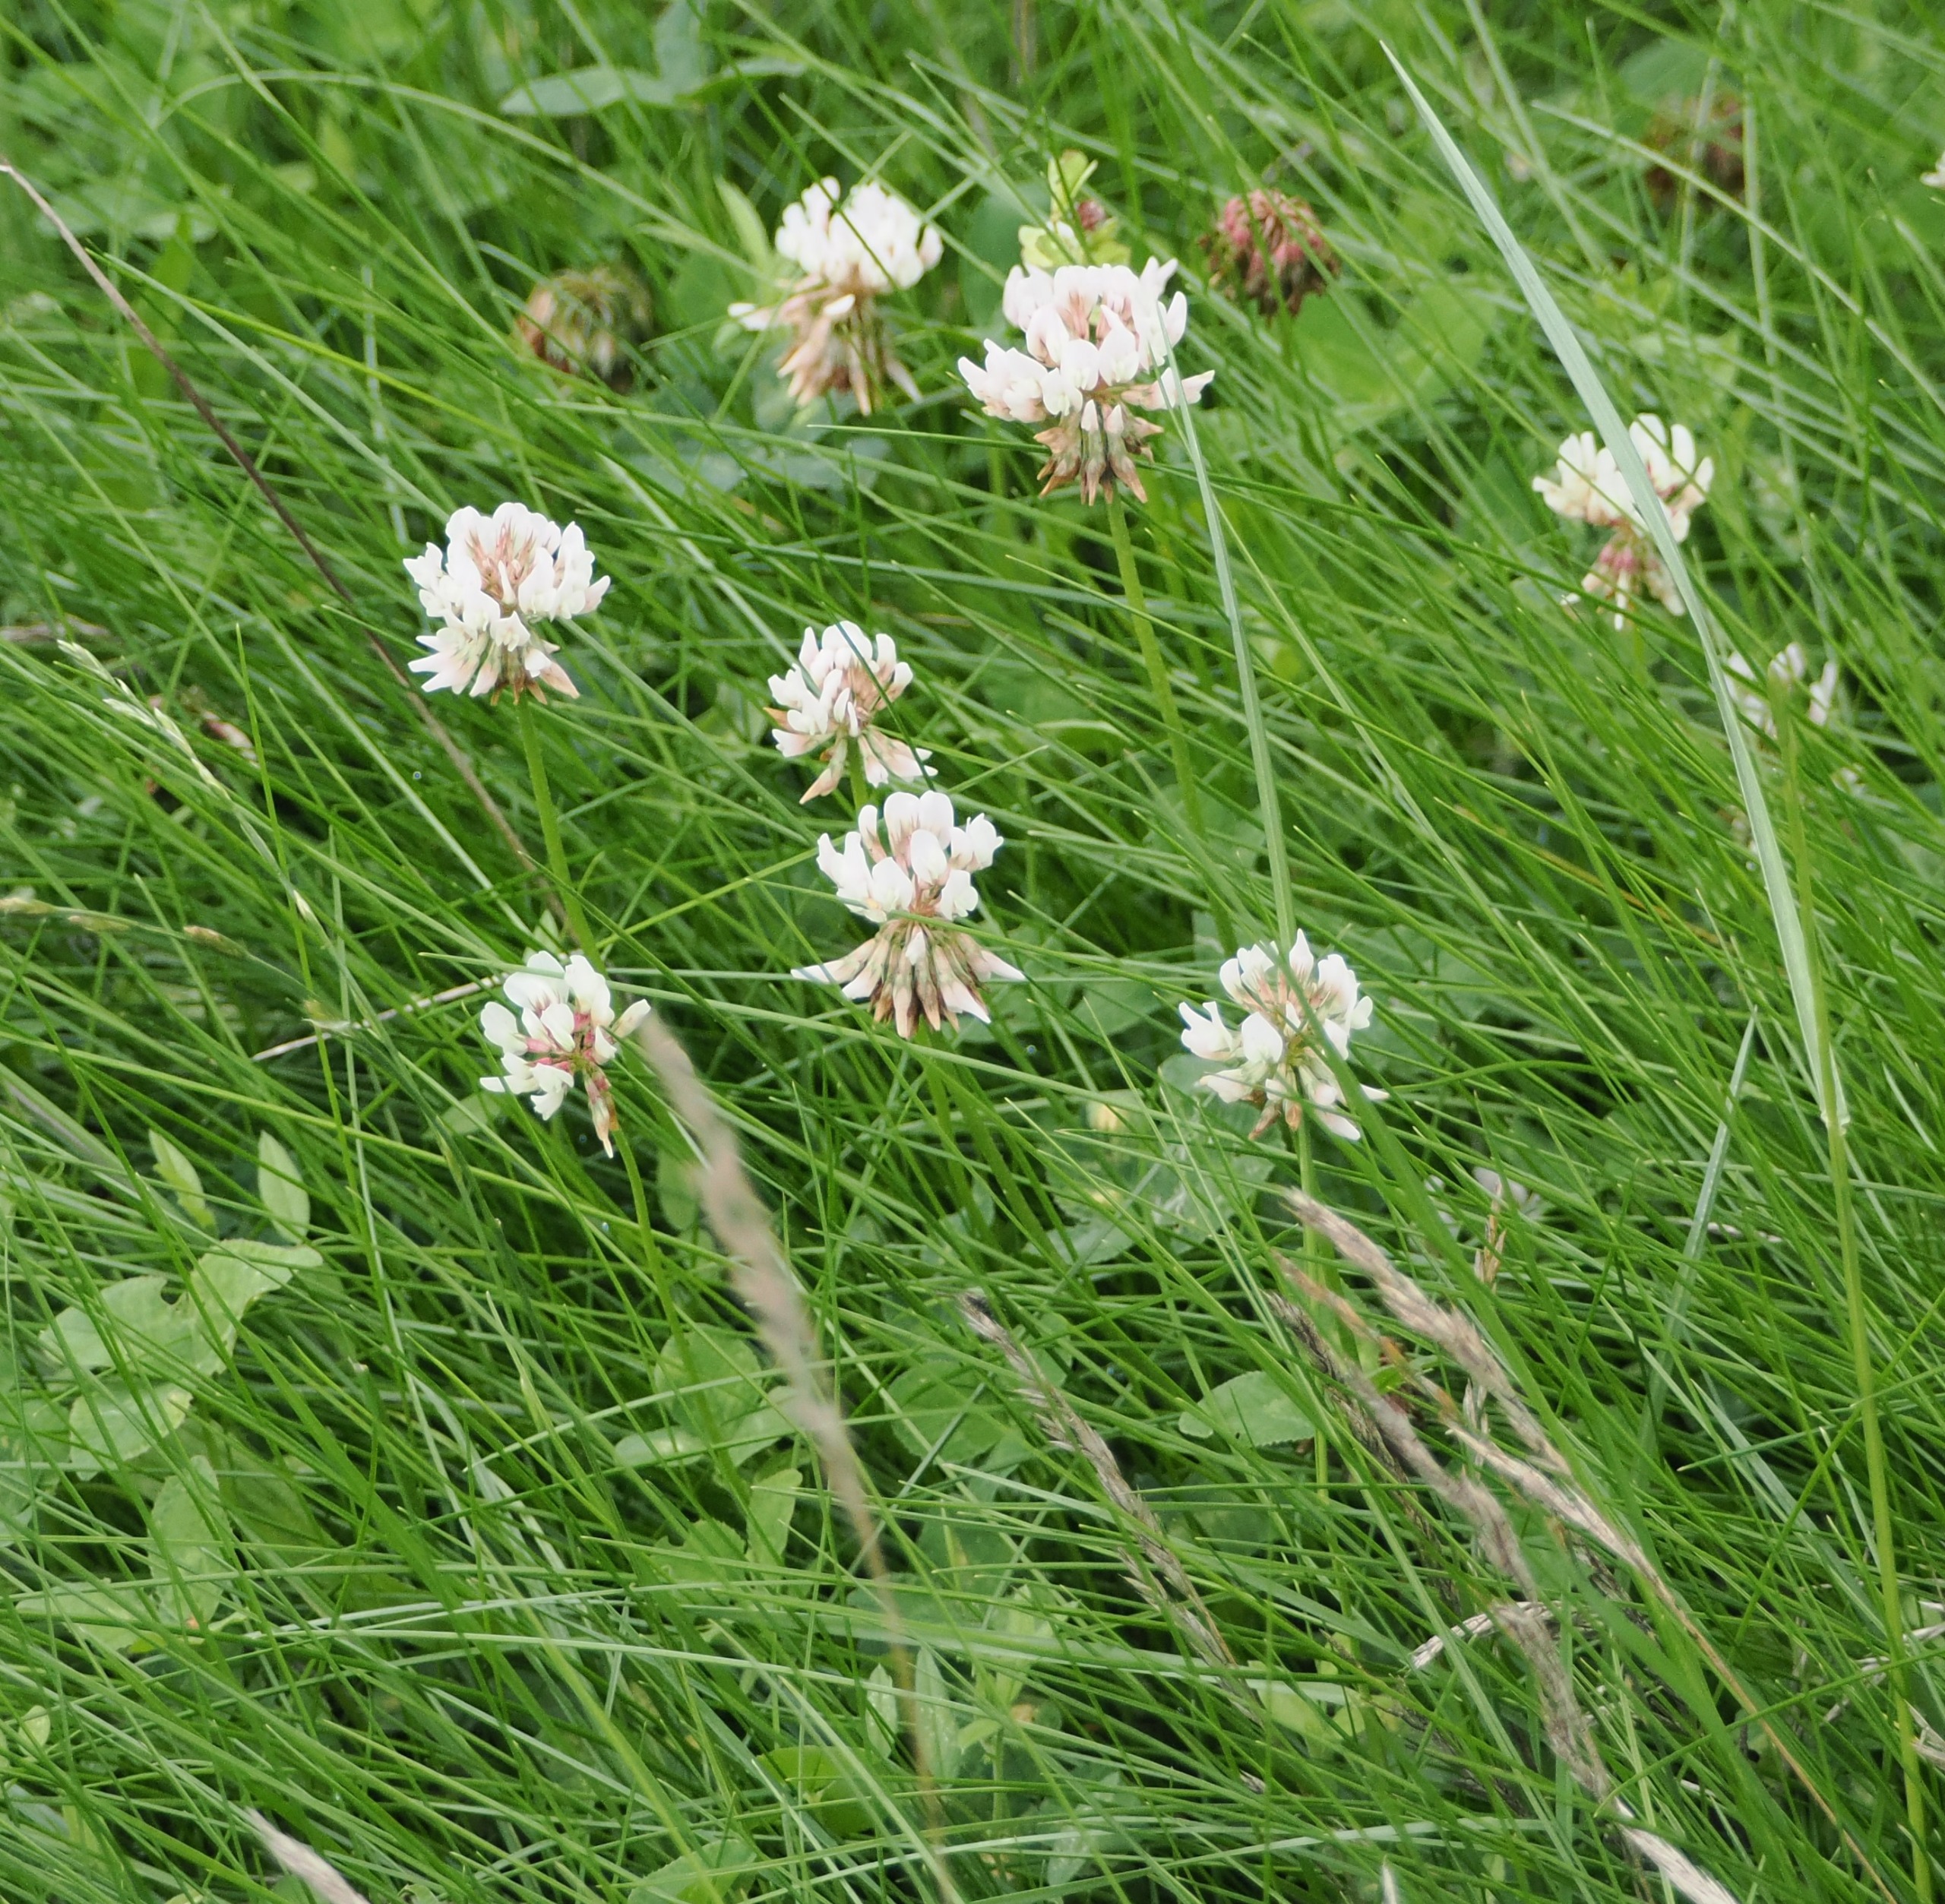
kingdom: Plantae
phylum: Tracheophyta
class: Magnoliopsida
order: Fabales
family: Fabaceae
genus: Trifolium
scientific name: Trifolium repens
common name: Hvid-kløver
